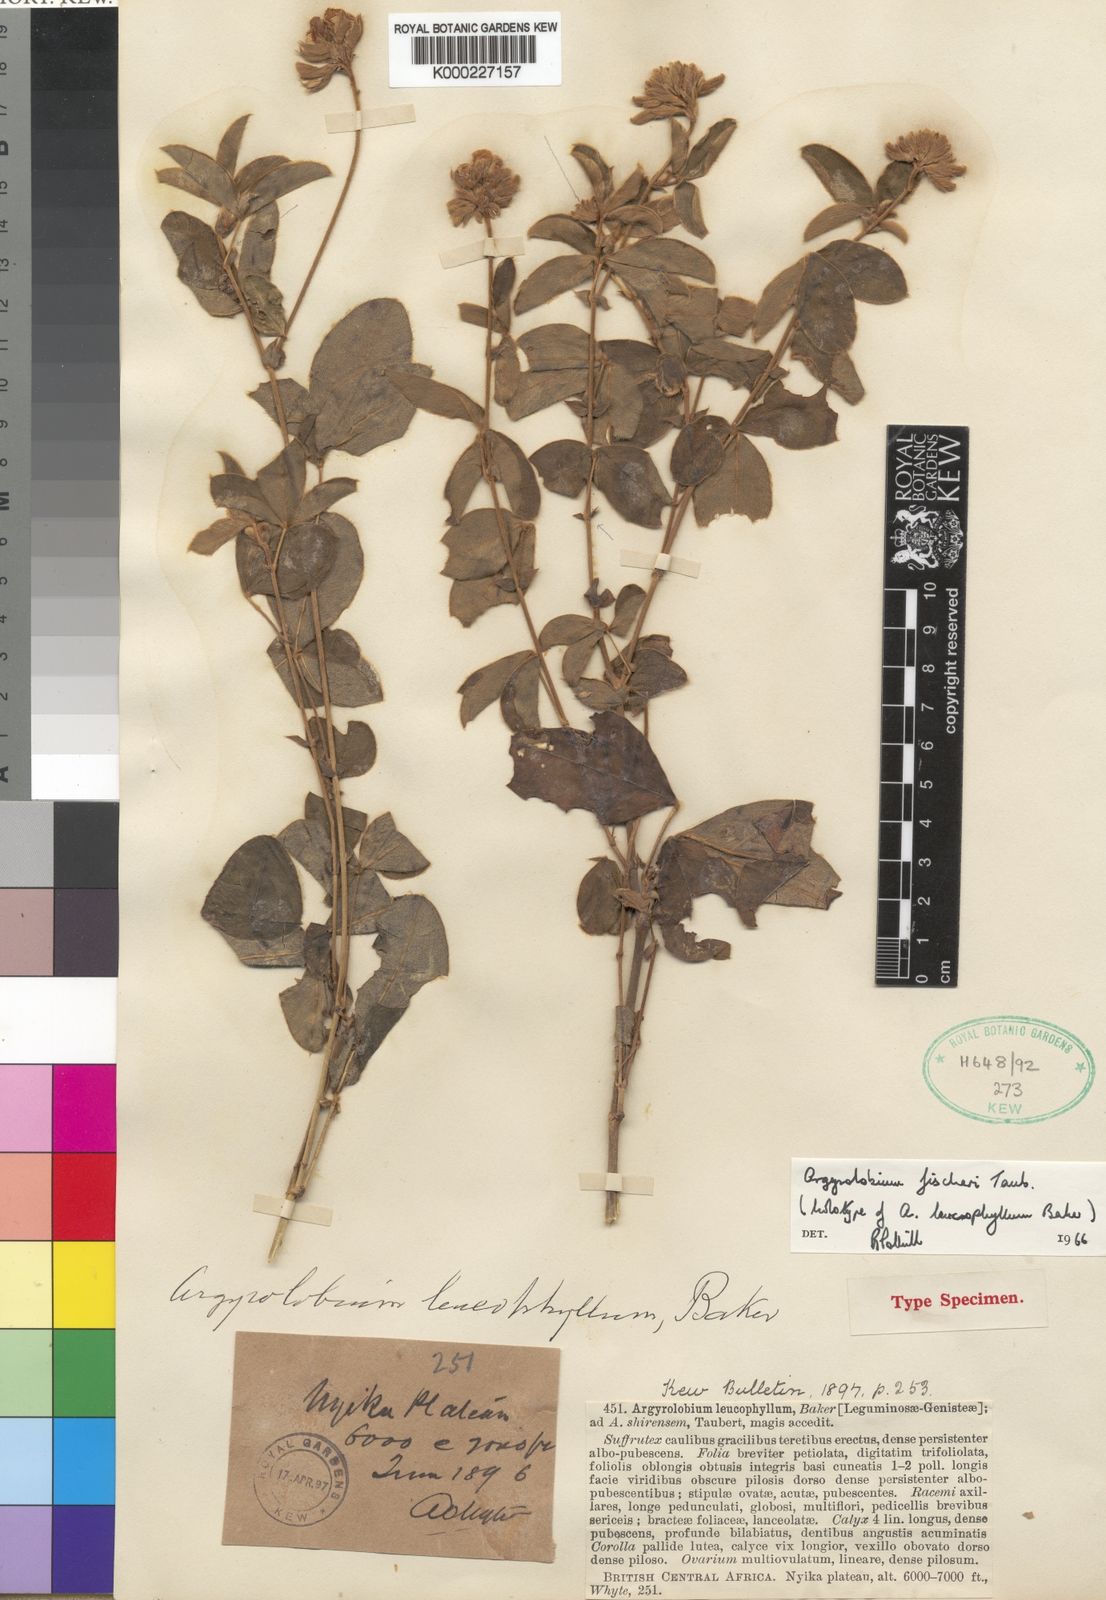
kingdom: Plantae
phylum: Tracheophyta
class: Magnoliopsida
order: Fabales
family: Fabaceae
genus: Argyrolobium
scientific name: Argyrolobium fischeri
